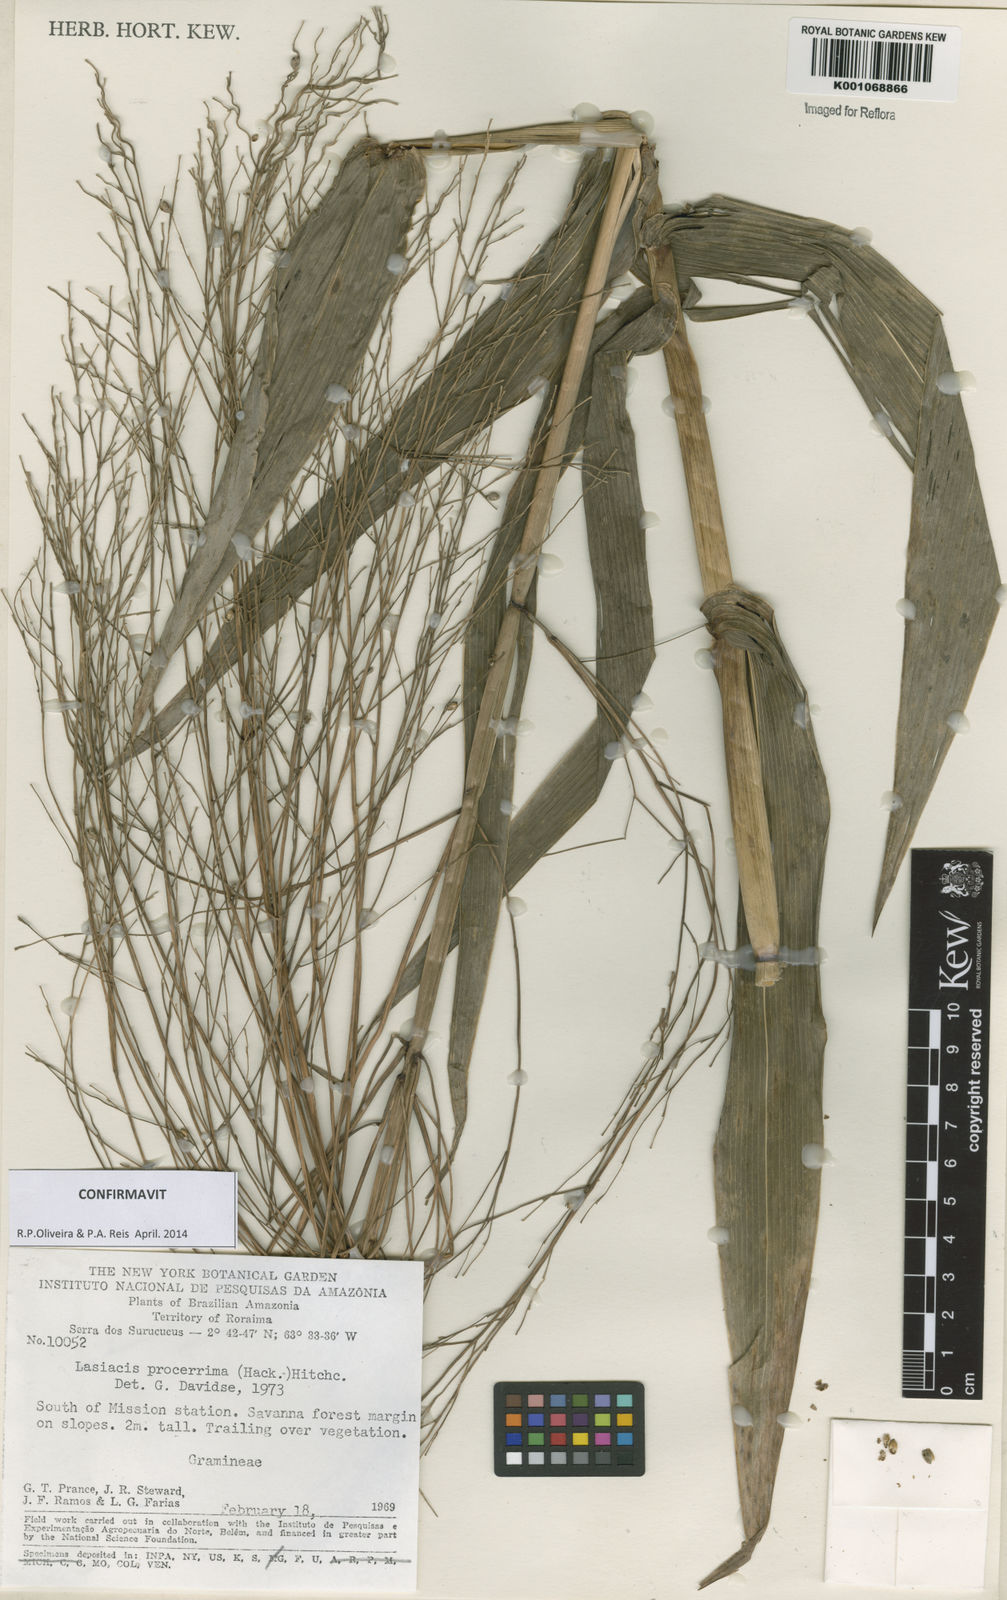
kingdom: Plantae
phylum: Tracheophyta
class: Liliopsida
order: Poales
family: Poaceae
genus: Lasiacis
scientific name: Lasiacis
